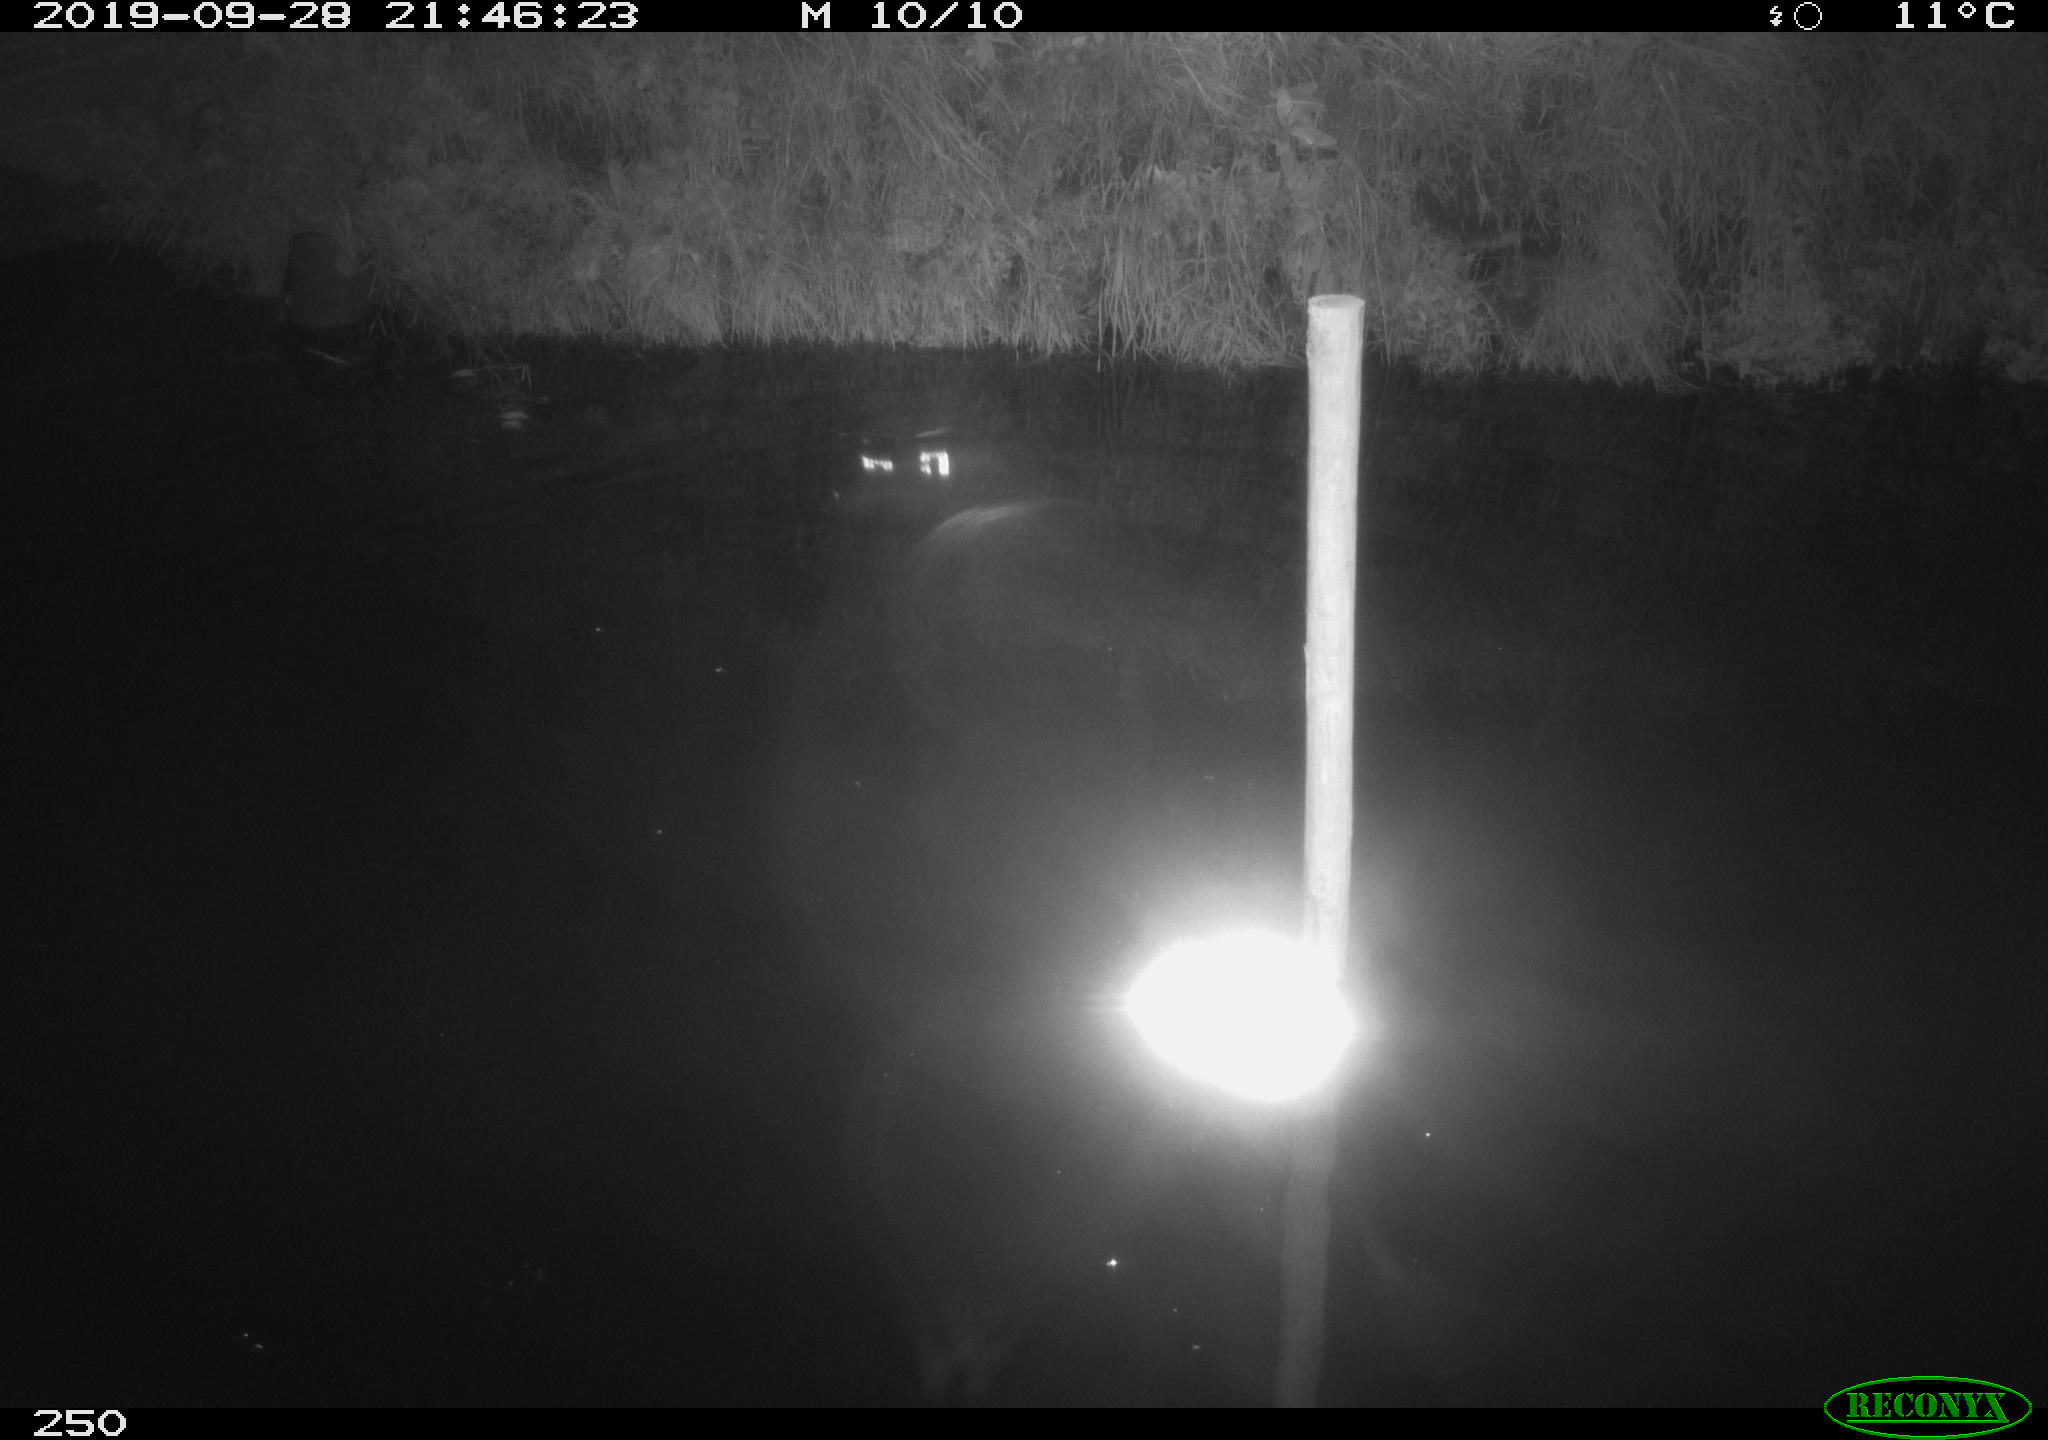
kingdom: Animalia
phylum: Chordata
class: Aves
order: Anseriformes
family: Anatidae
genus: Anas
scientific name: Anas platyrhynchos
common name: Mallard
